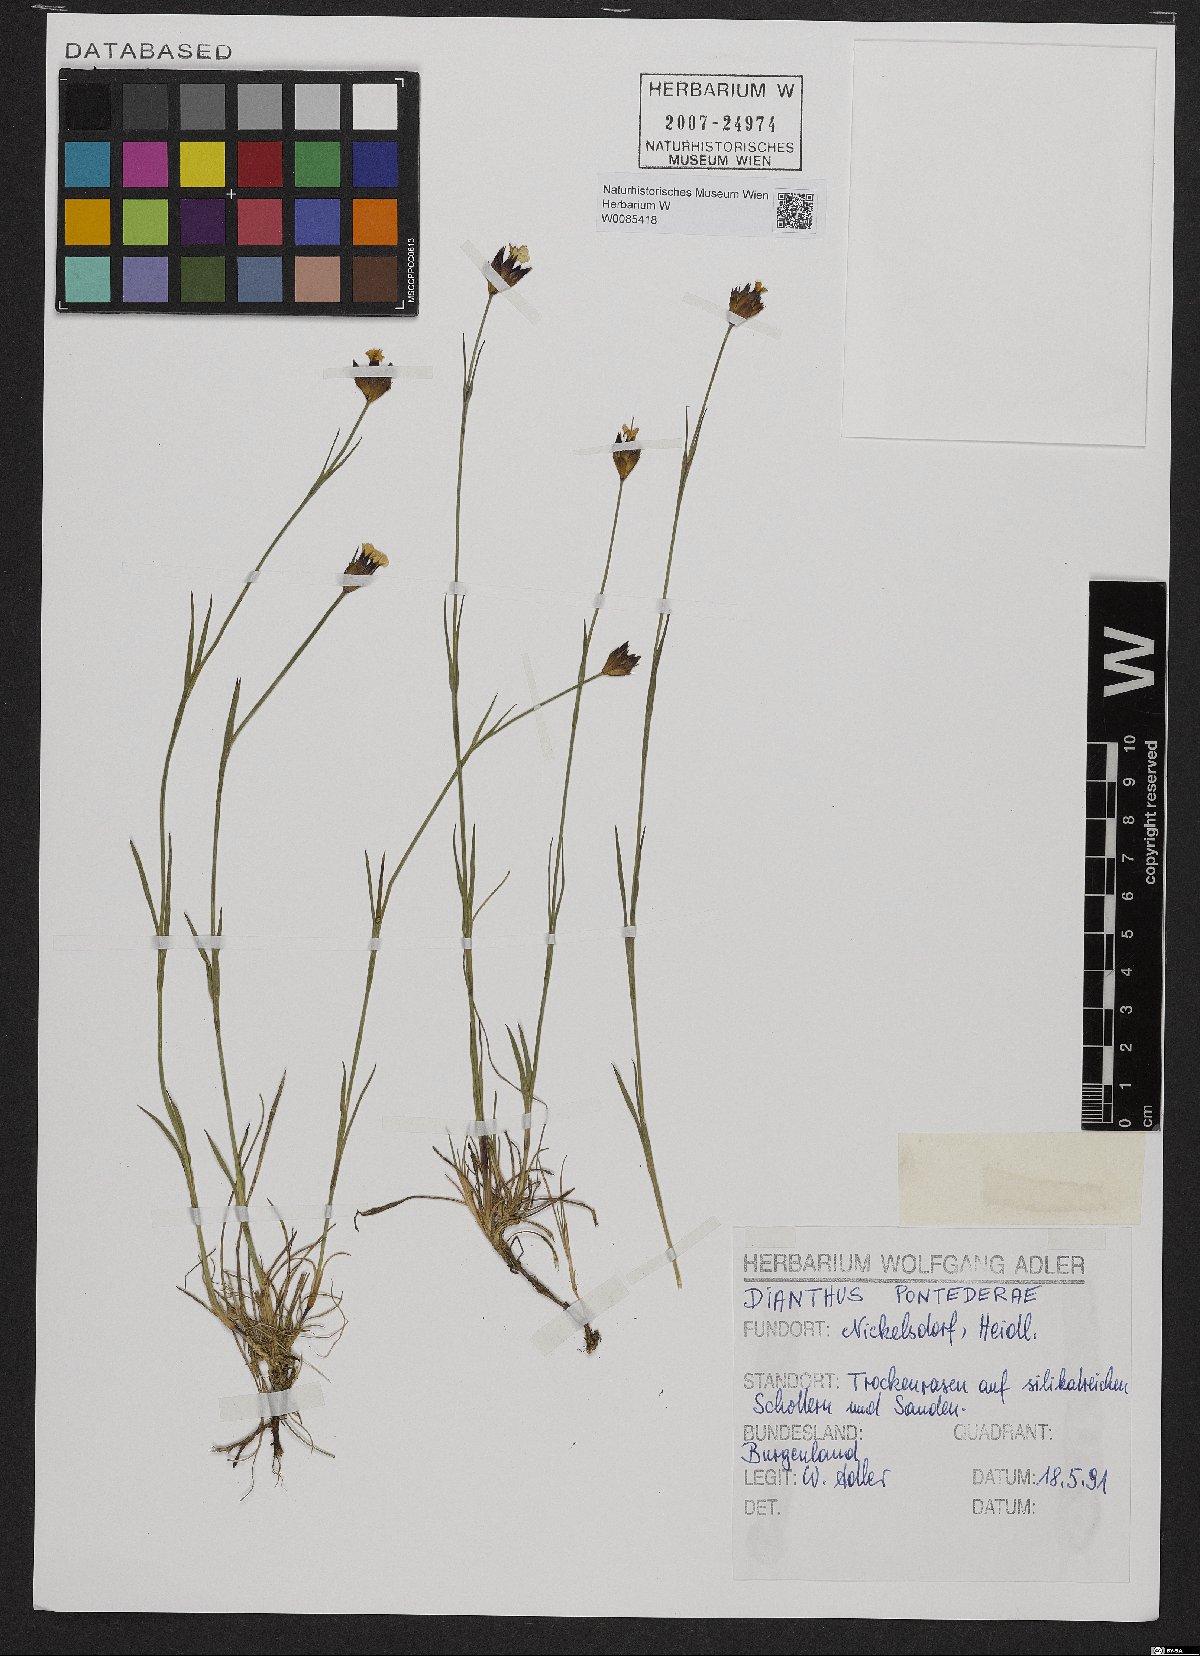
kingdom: Plantae
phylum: Tracheophyta
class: Magnoliopsida
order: Caryophyllales
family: Caryophyllaceae
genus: Dianthus
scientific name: Dianthus pontederae
